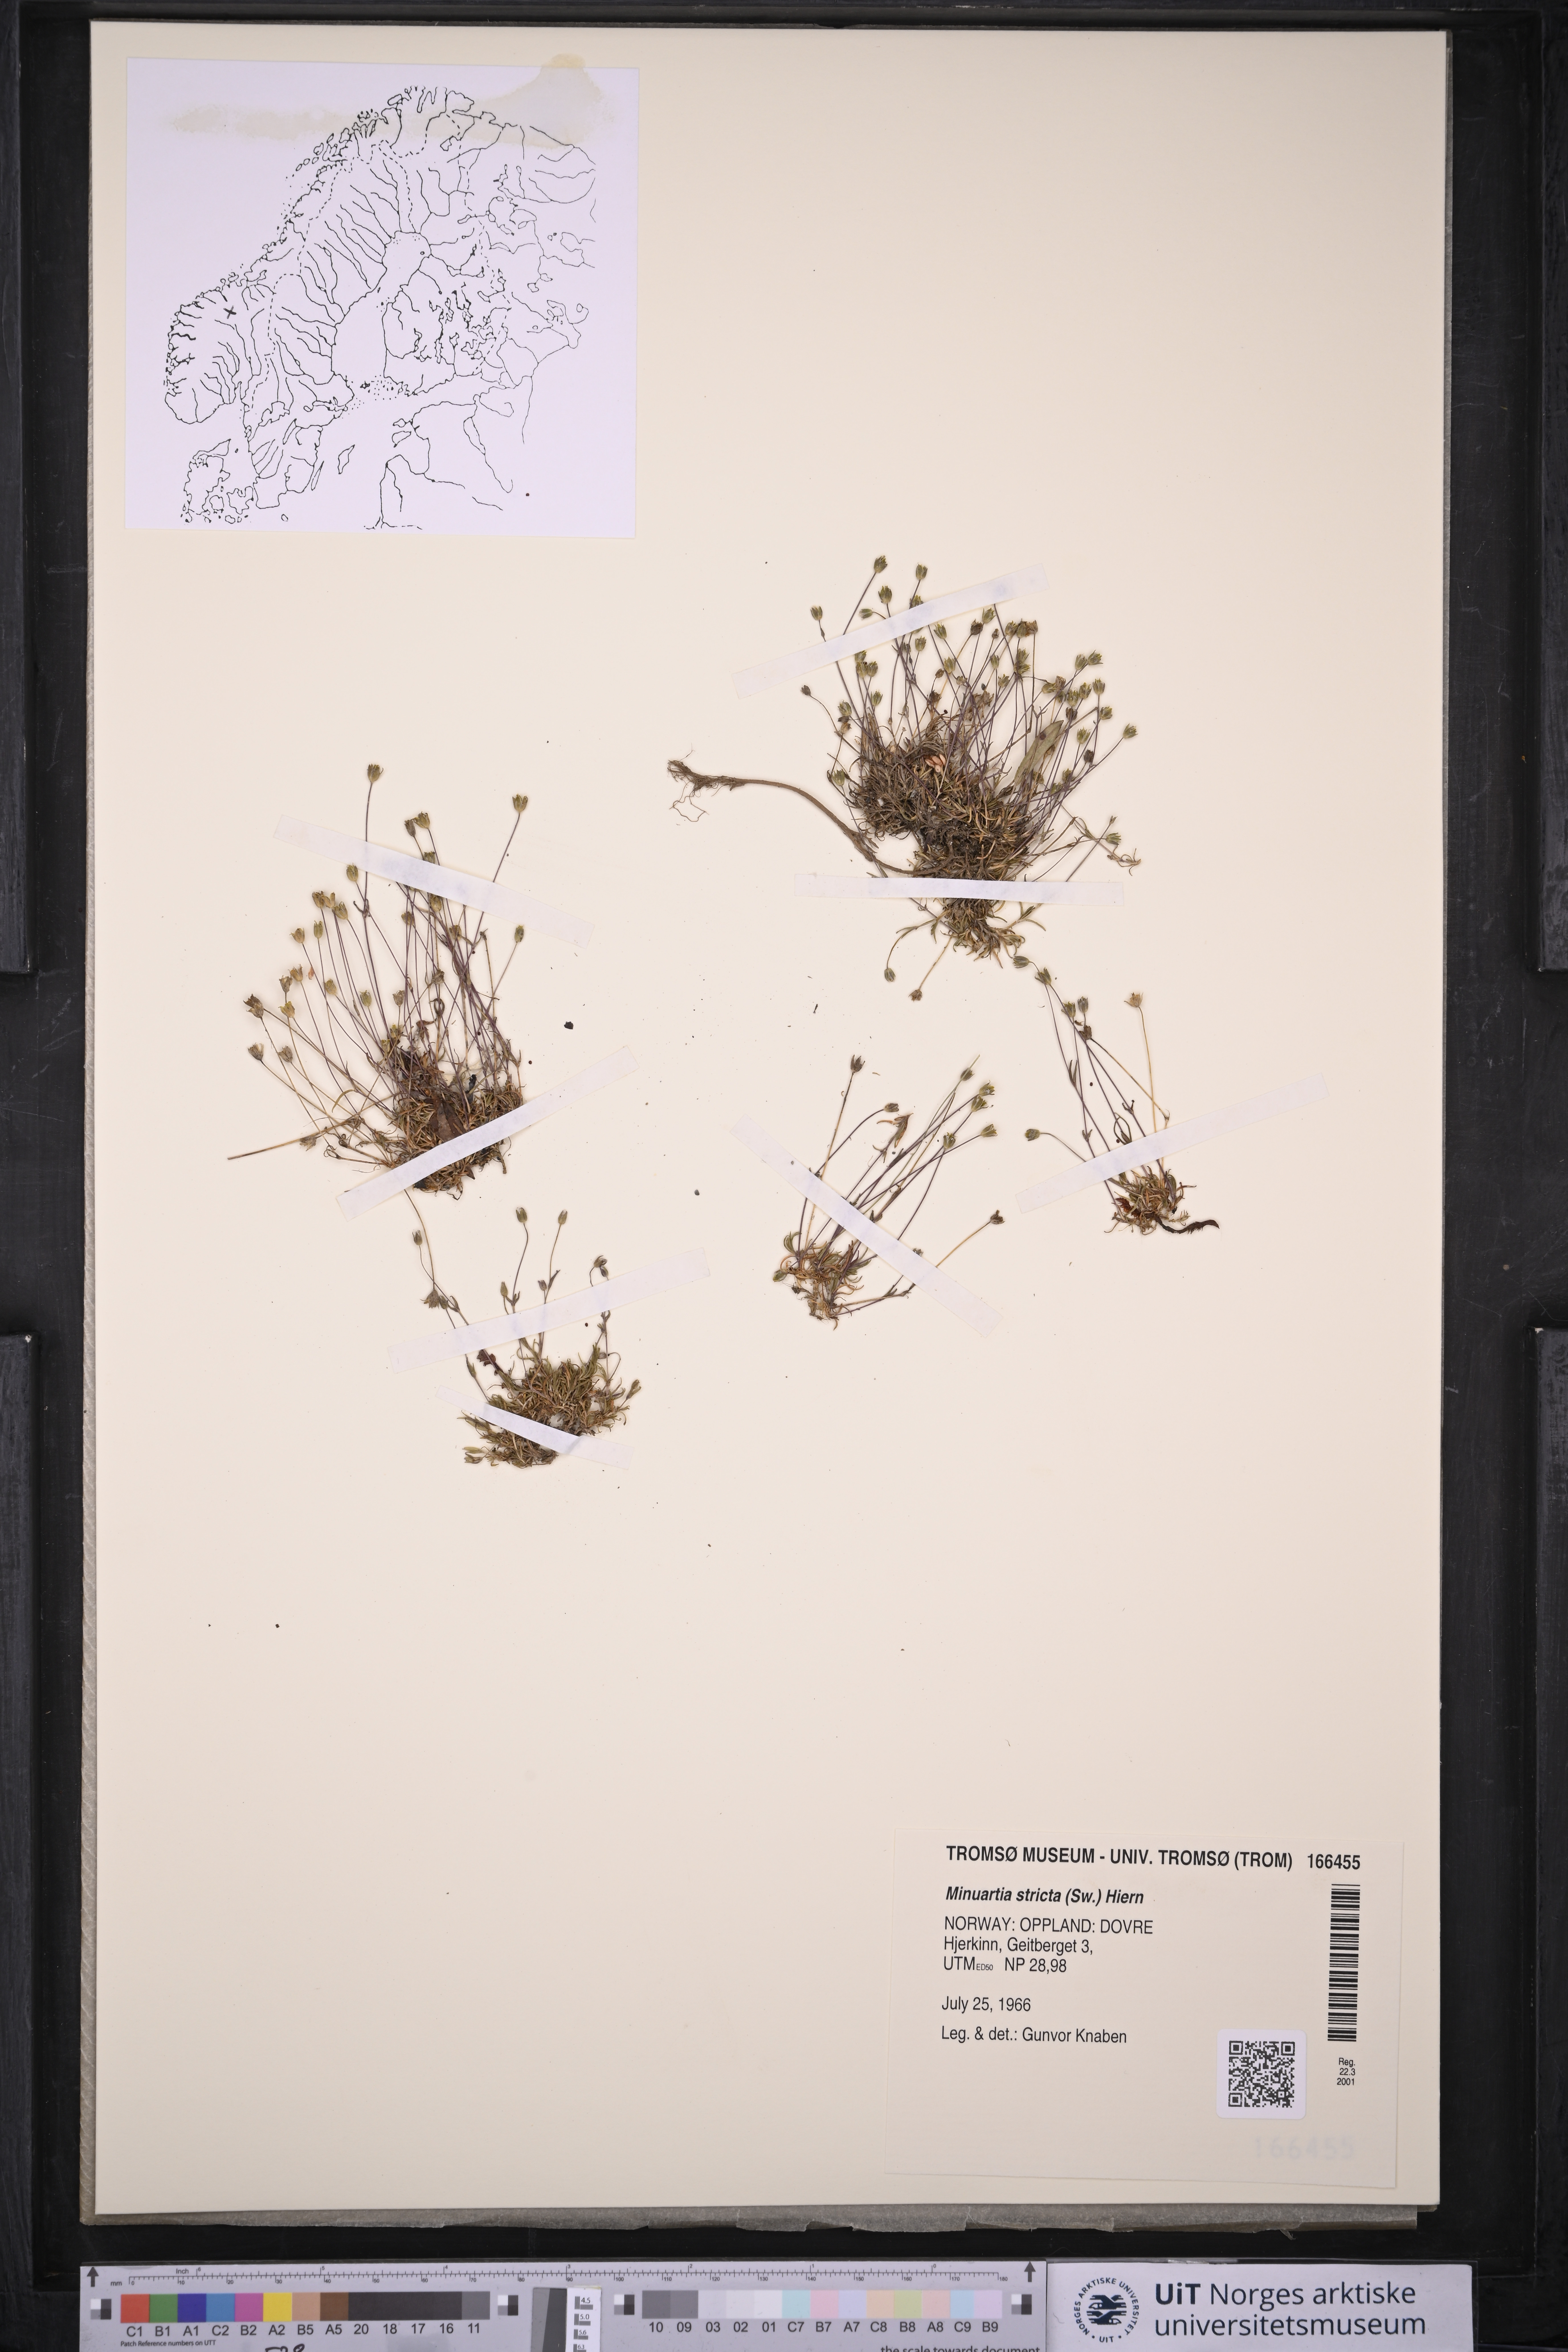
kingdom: Plantae
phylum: Tracheophyta
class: Magnoliopsida
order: Caryophyllales
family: Caryophyllaceae
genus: Sabulina
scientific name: Sabulina stricta
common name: Bog sandwort
